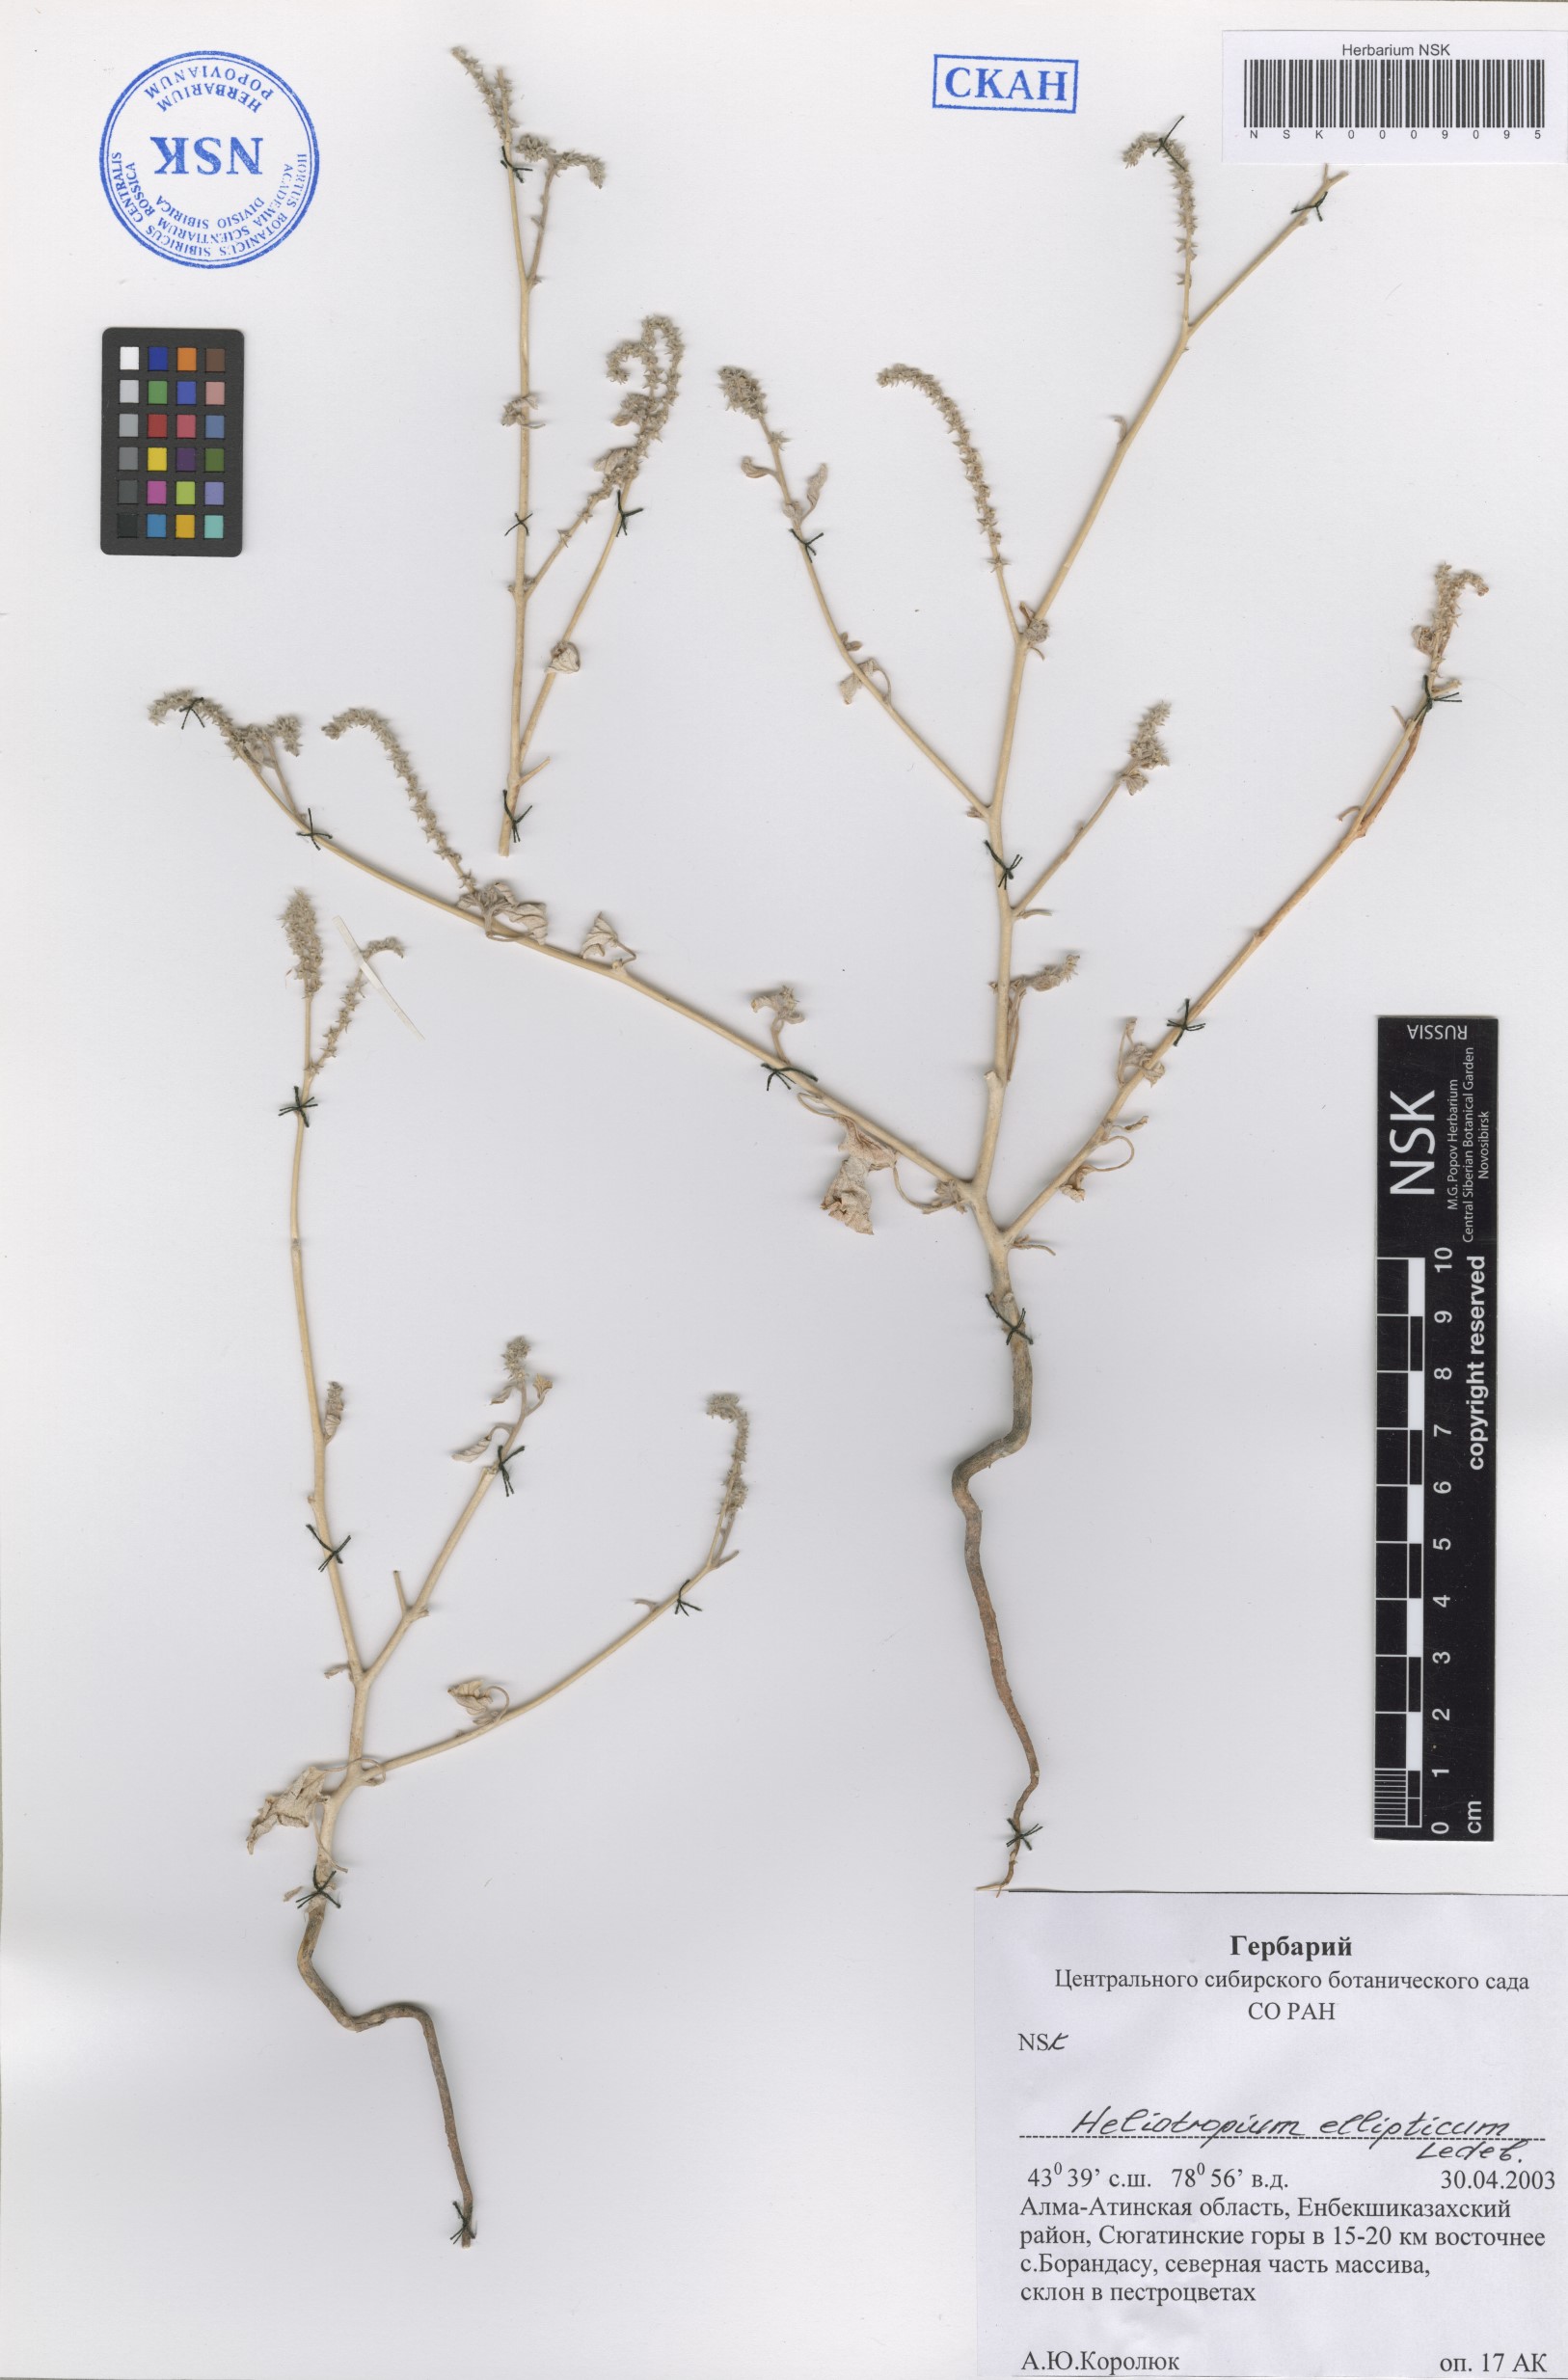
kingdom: Plantae
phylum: Tracheophyta
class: Magnoliopsida
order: Boraginales
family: Heliotropiaceae
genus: Heliotropium
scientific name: Heliotropium ellipticum
